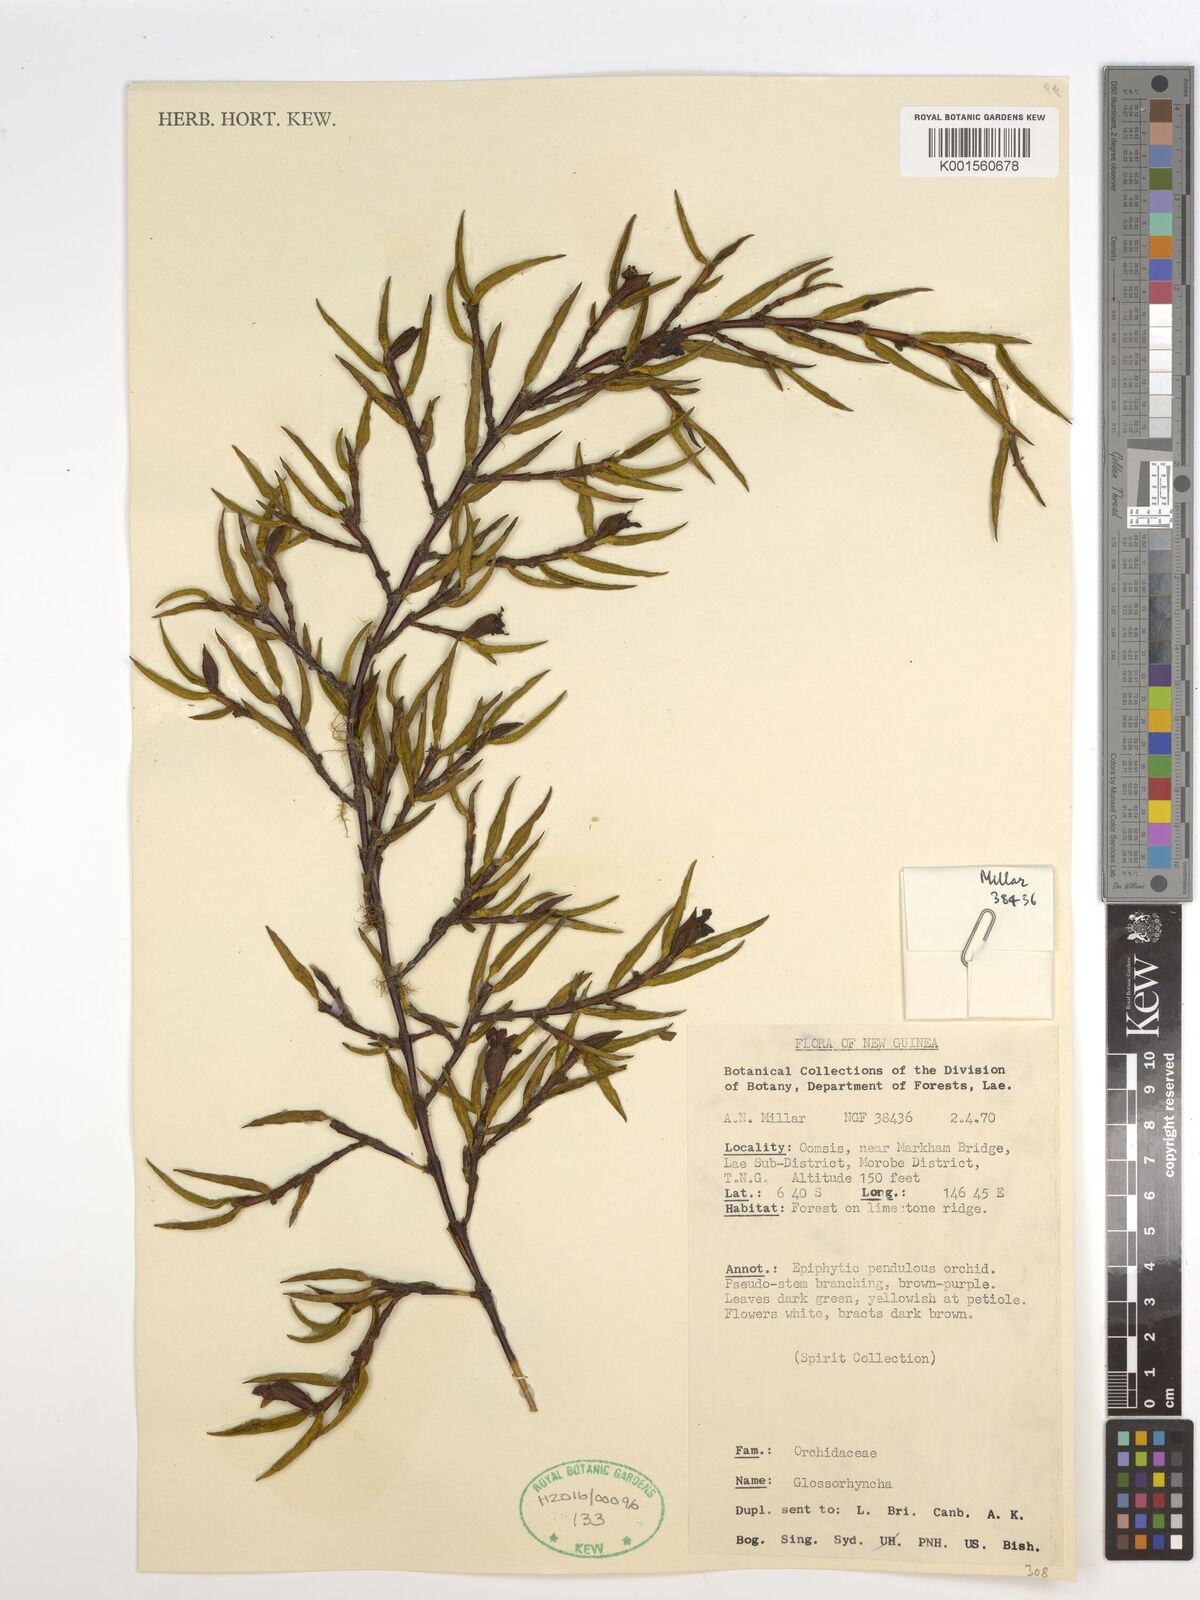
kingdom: Plantae
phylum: Tracheophyta
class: Liliopsida
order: Asparagales
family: Orchidaceae
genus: Glomera
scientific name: Glomera
